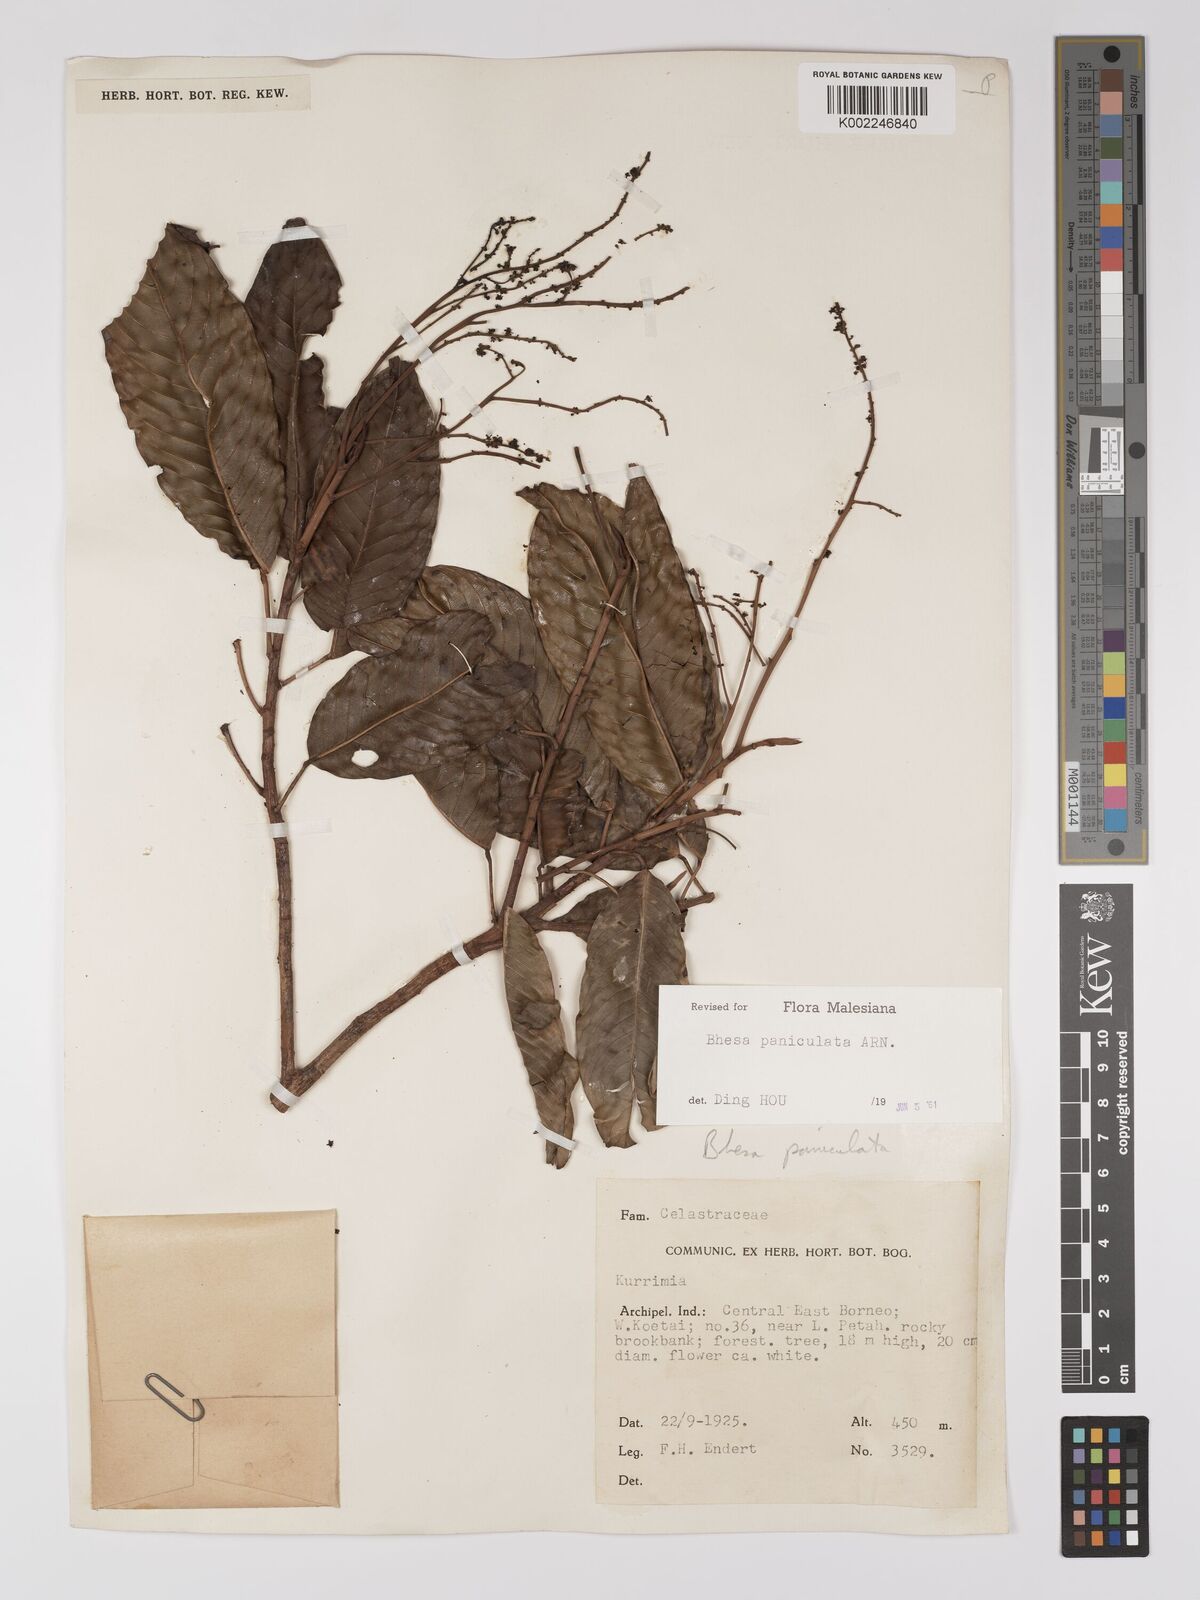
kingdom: Plantae
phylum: Tracheophyta
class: Magnoliopsida
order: Malpighiales
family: Centroplacaceae
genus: Bhesa
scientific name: Bhesa paniculata
